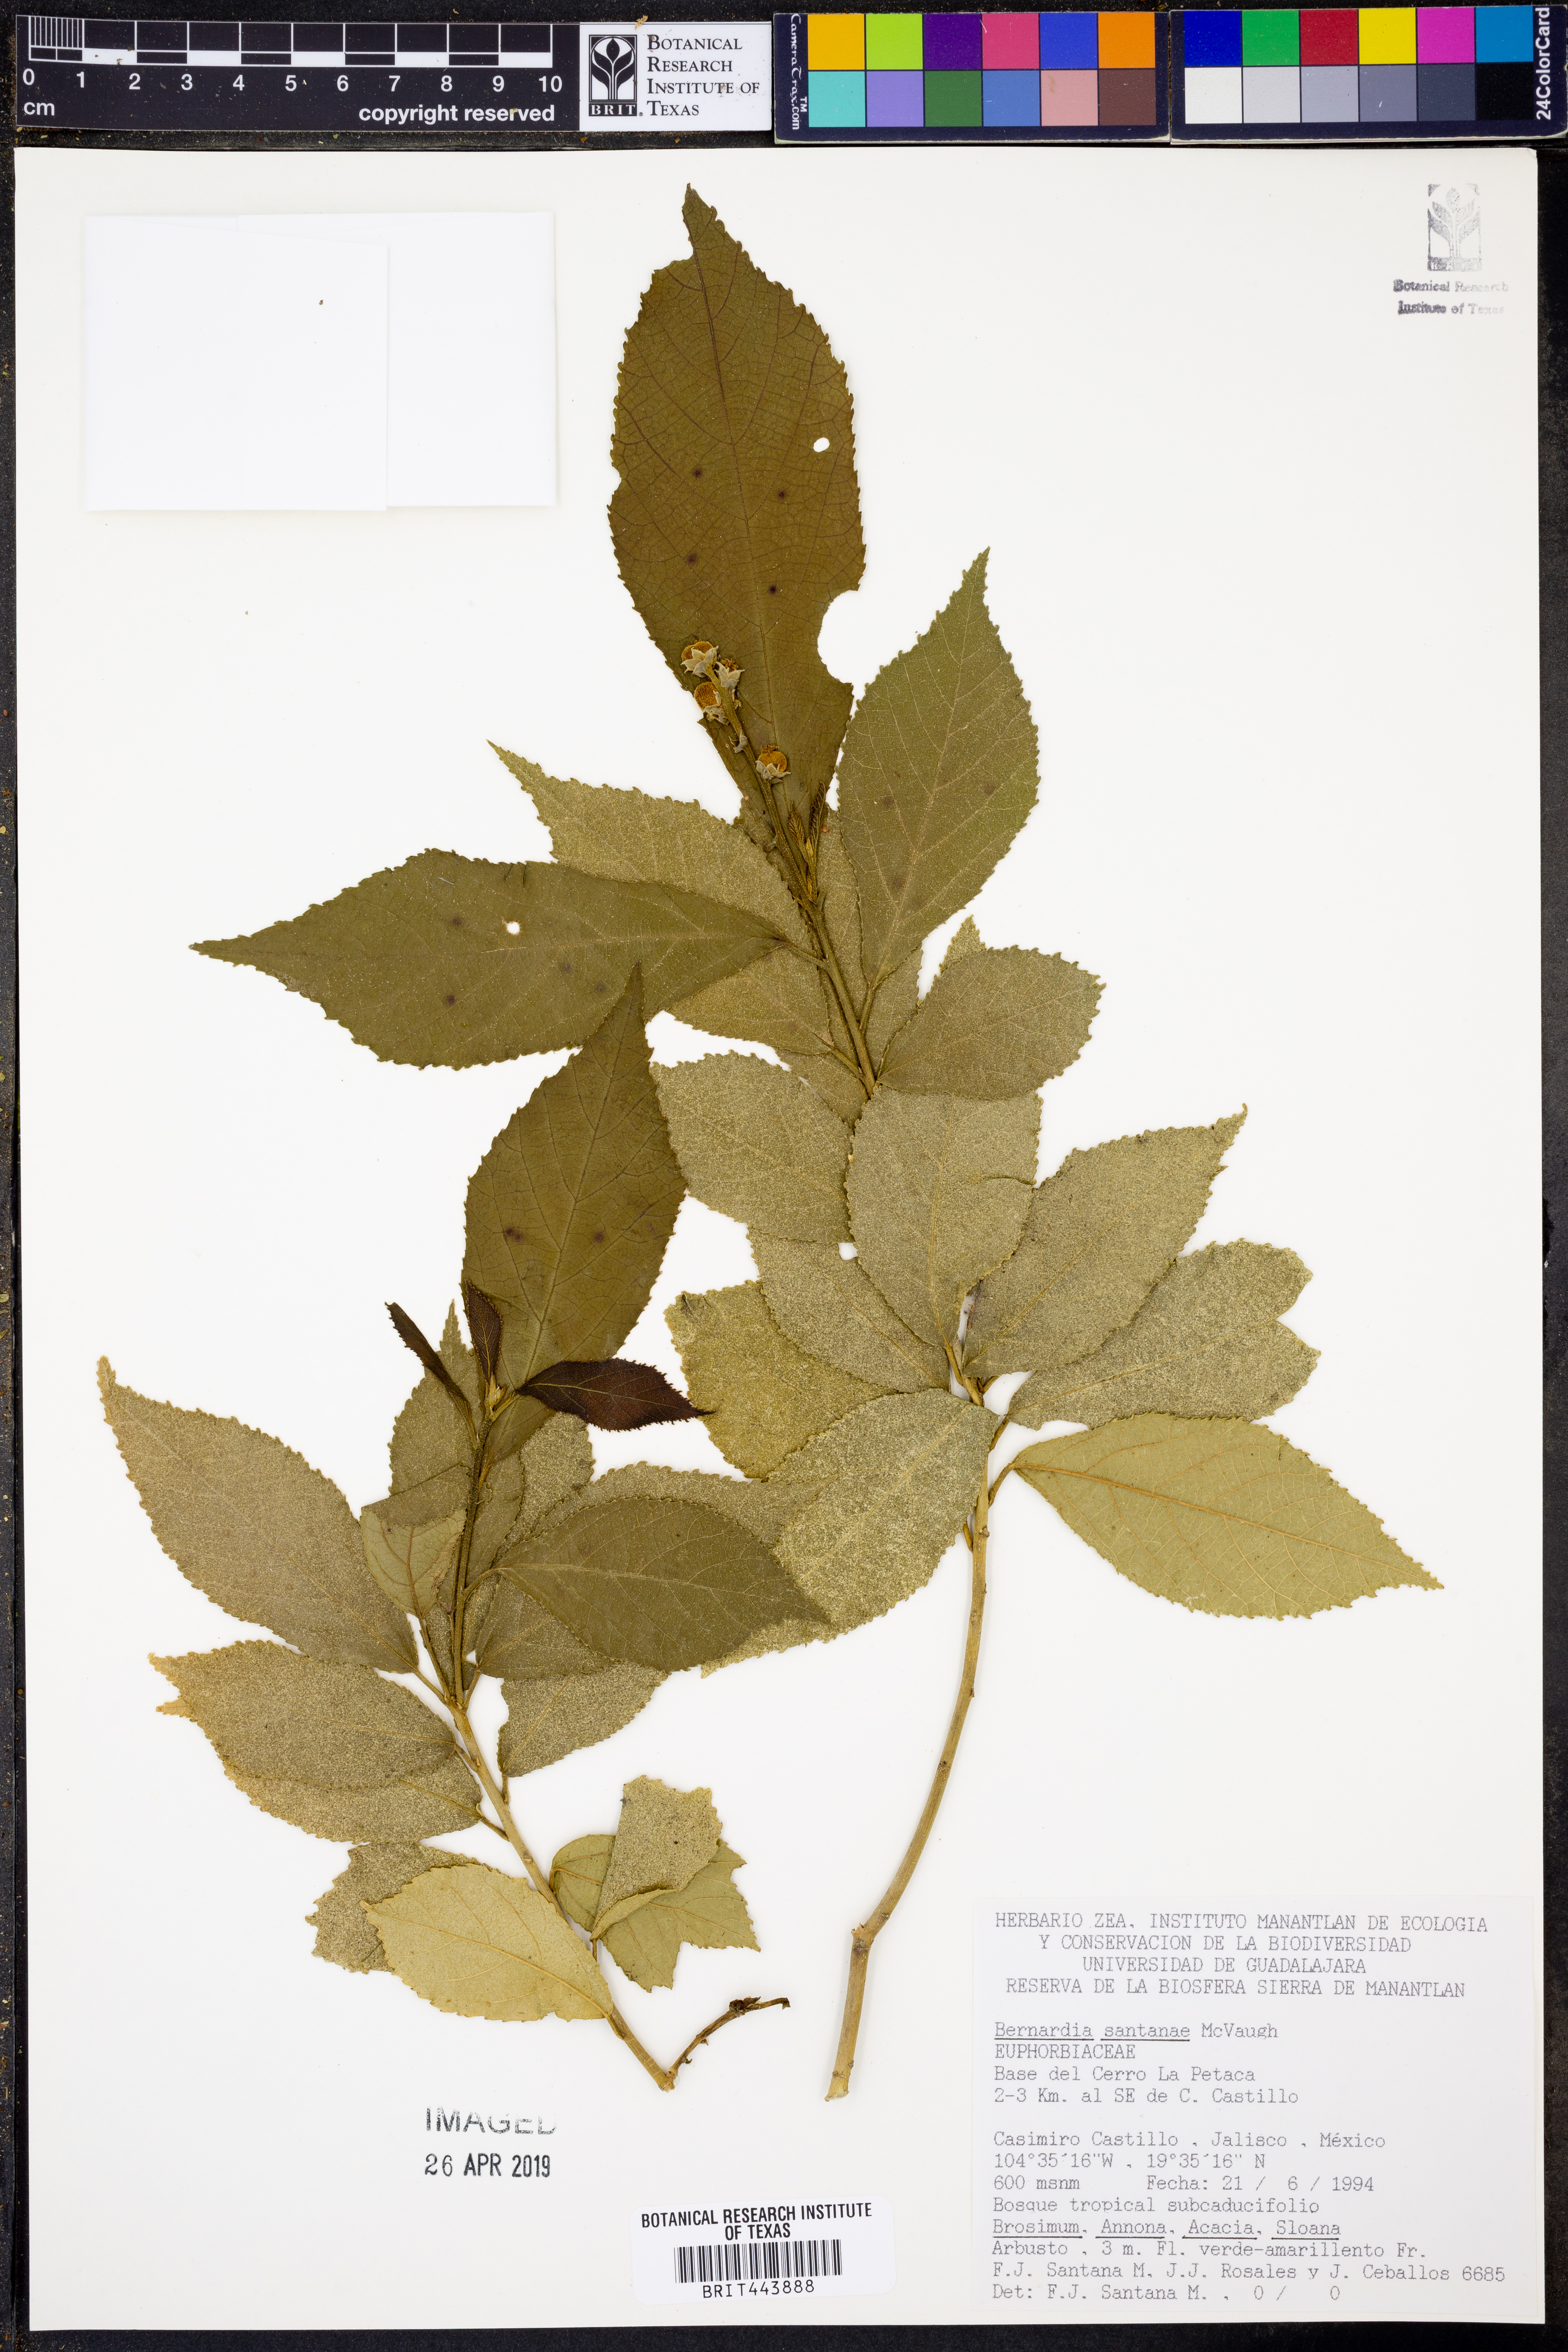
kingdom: Plantae
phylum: Tracheophyta
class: Magnoliopsida
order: Malpighiales
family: Euphorbiaceae
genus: Bernardia
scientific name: Bernardia santanae
